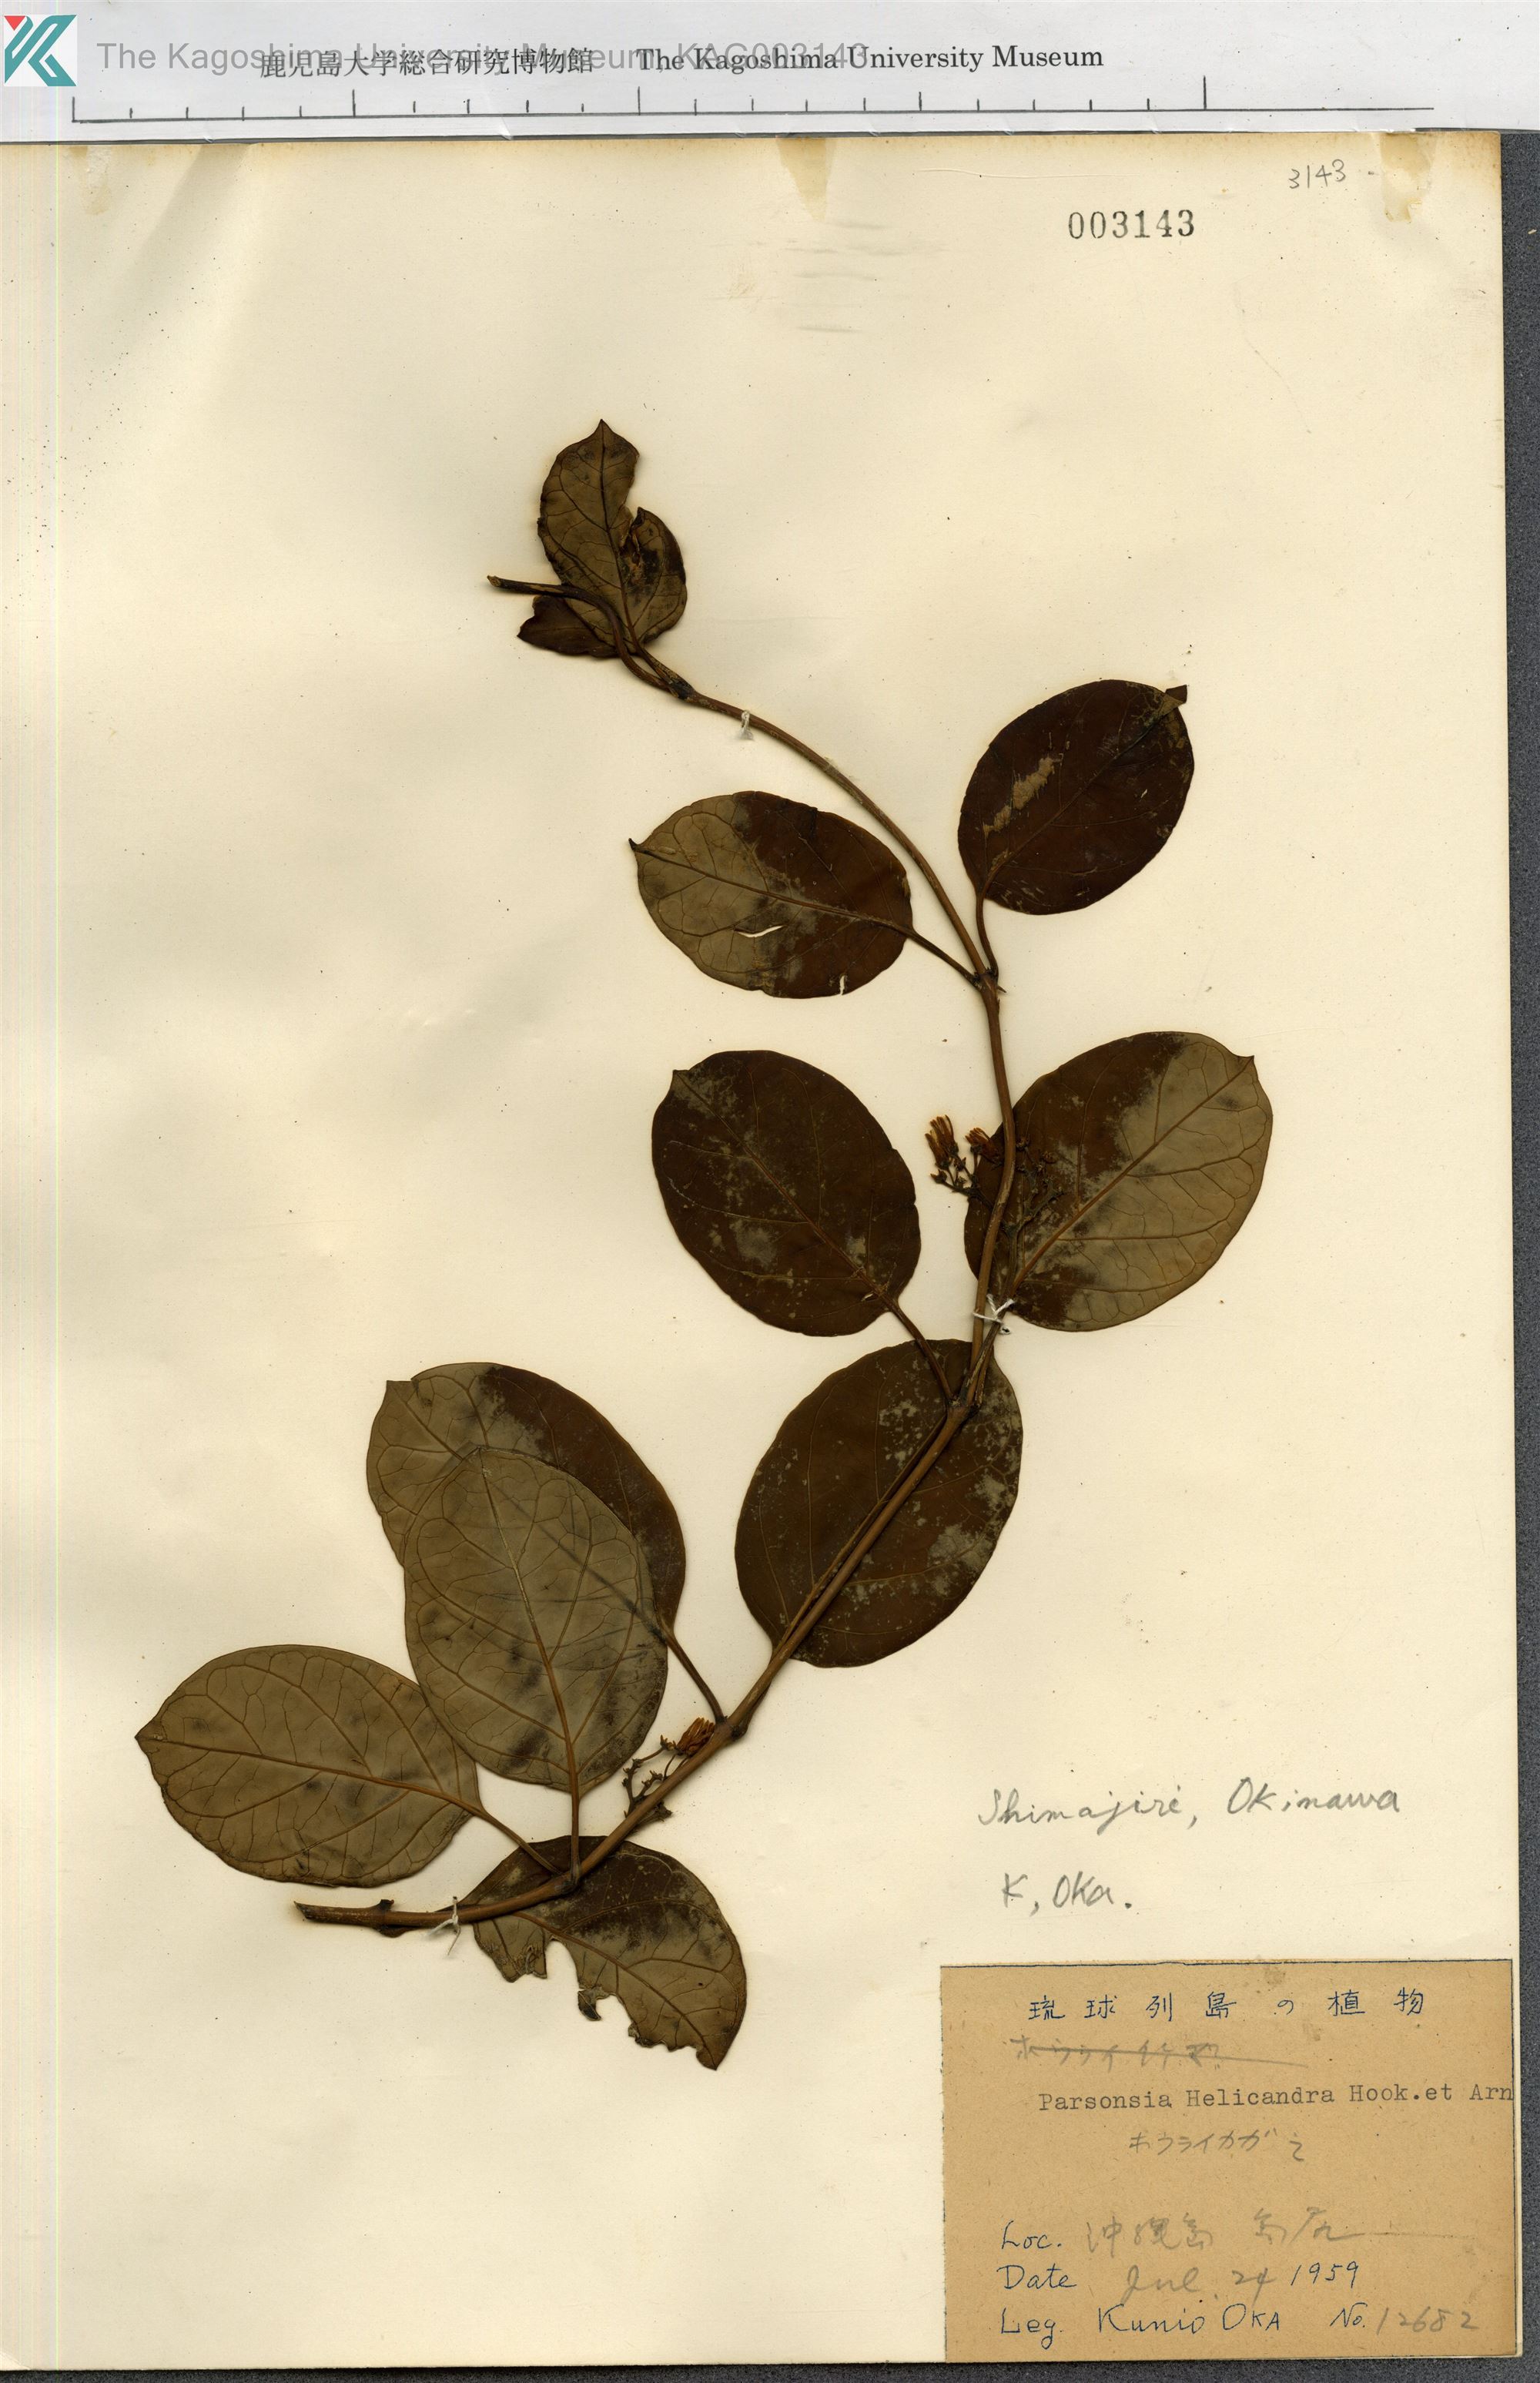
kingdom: Plantae
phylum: Tracheophyta
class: Magnoliopsida
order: Gentianales
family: Apocynaceae
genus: Parsonsia
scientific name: Parsonsia alboflavescens
